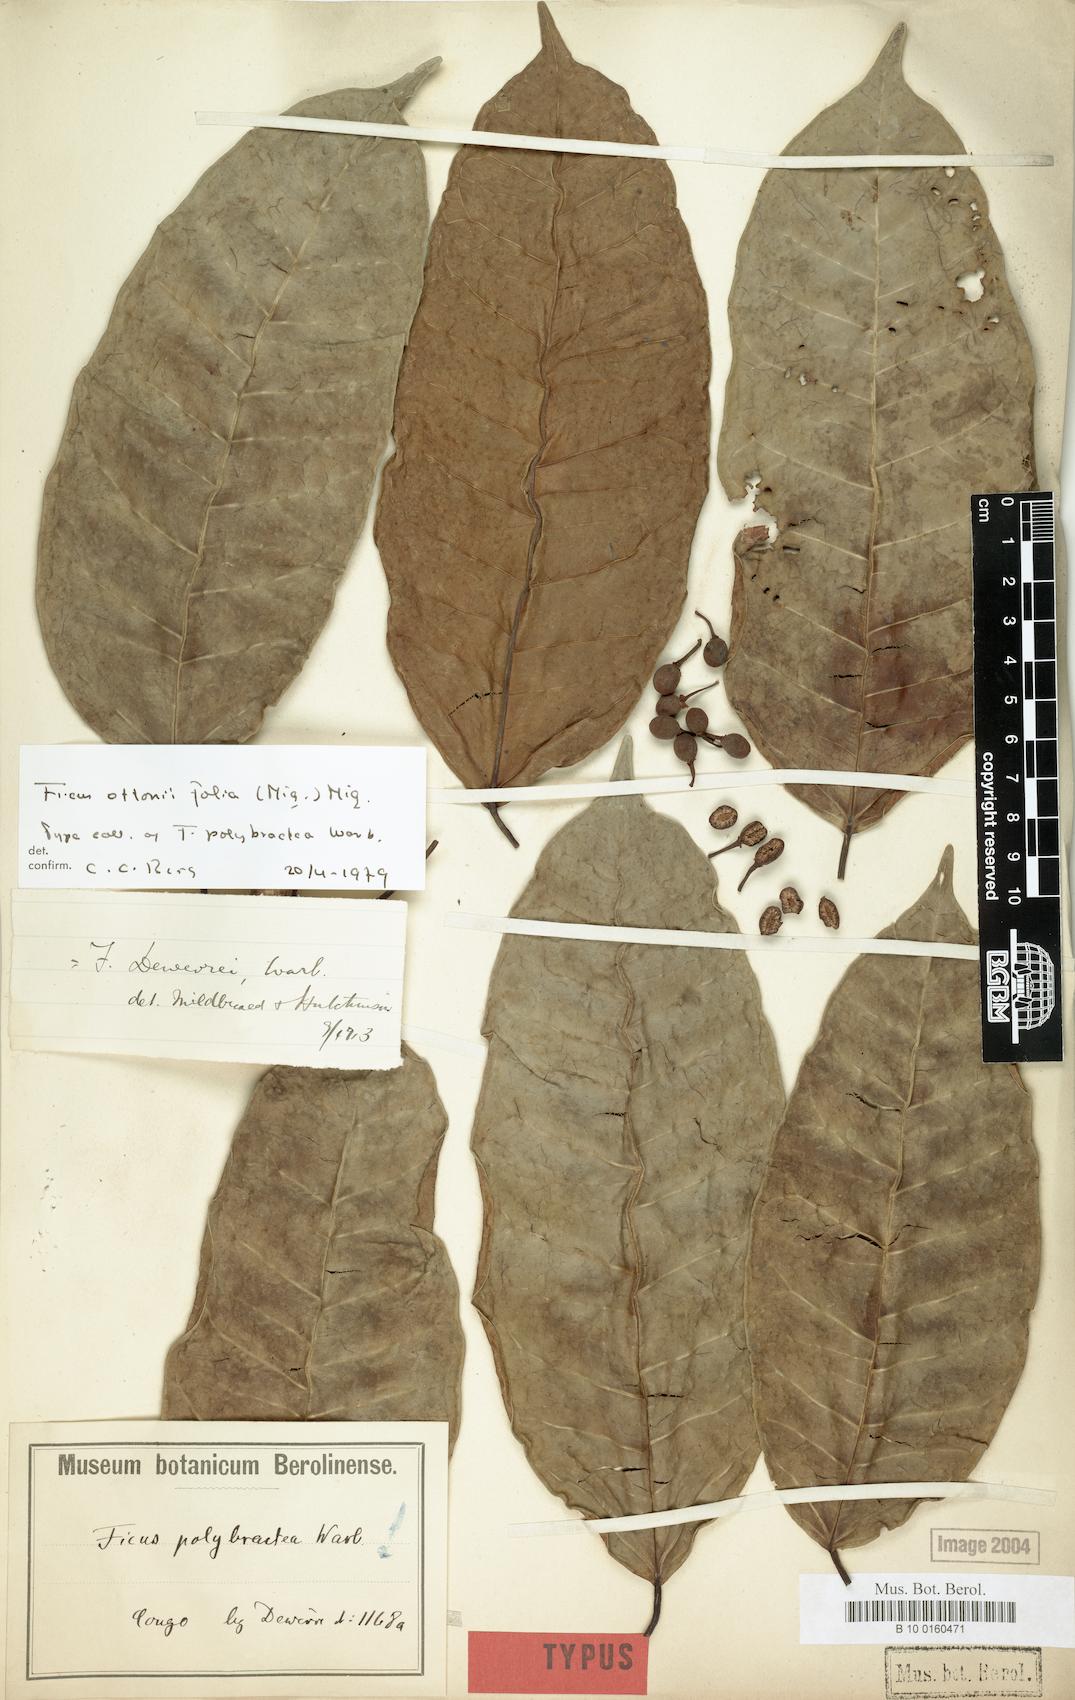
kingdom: Plantae
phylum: Tracheophyta
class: Magnoliopsida
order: Rosales
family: Moraceae
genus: Ficus
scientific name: Ficus ottoniifolia
